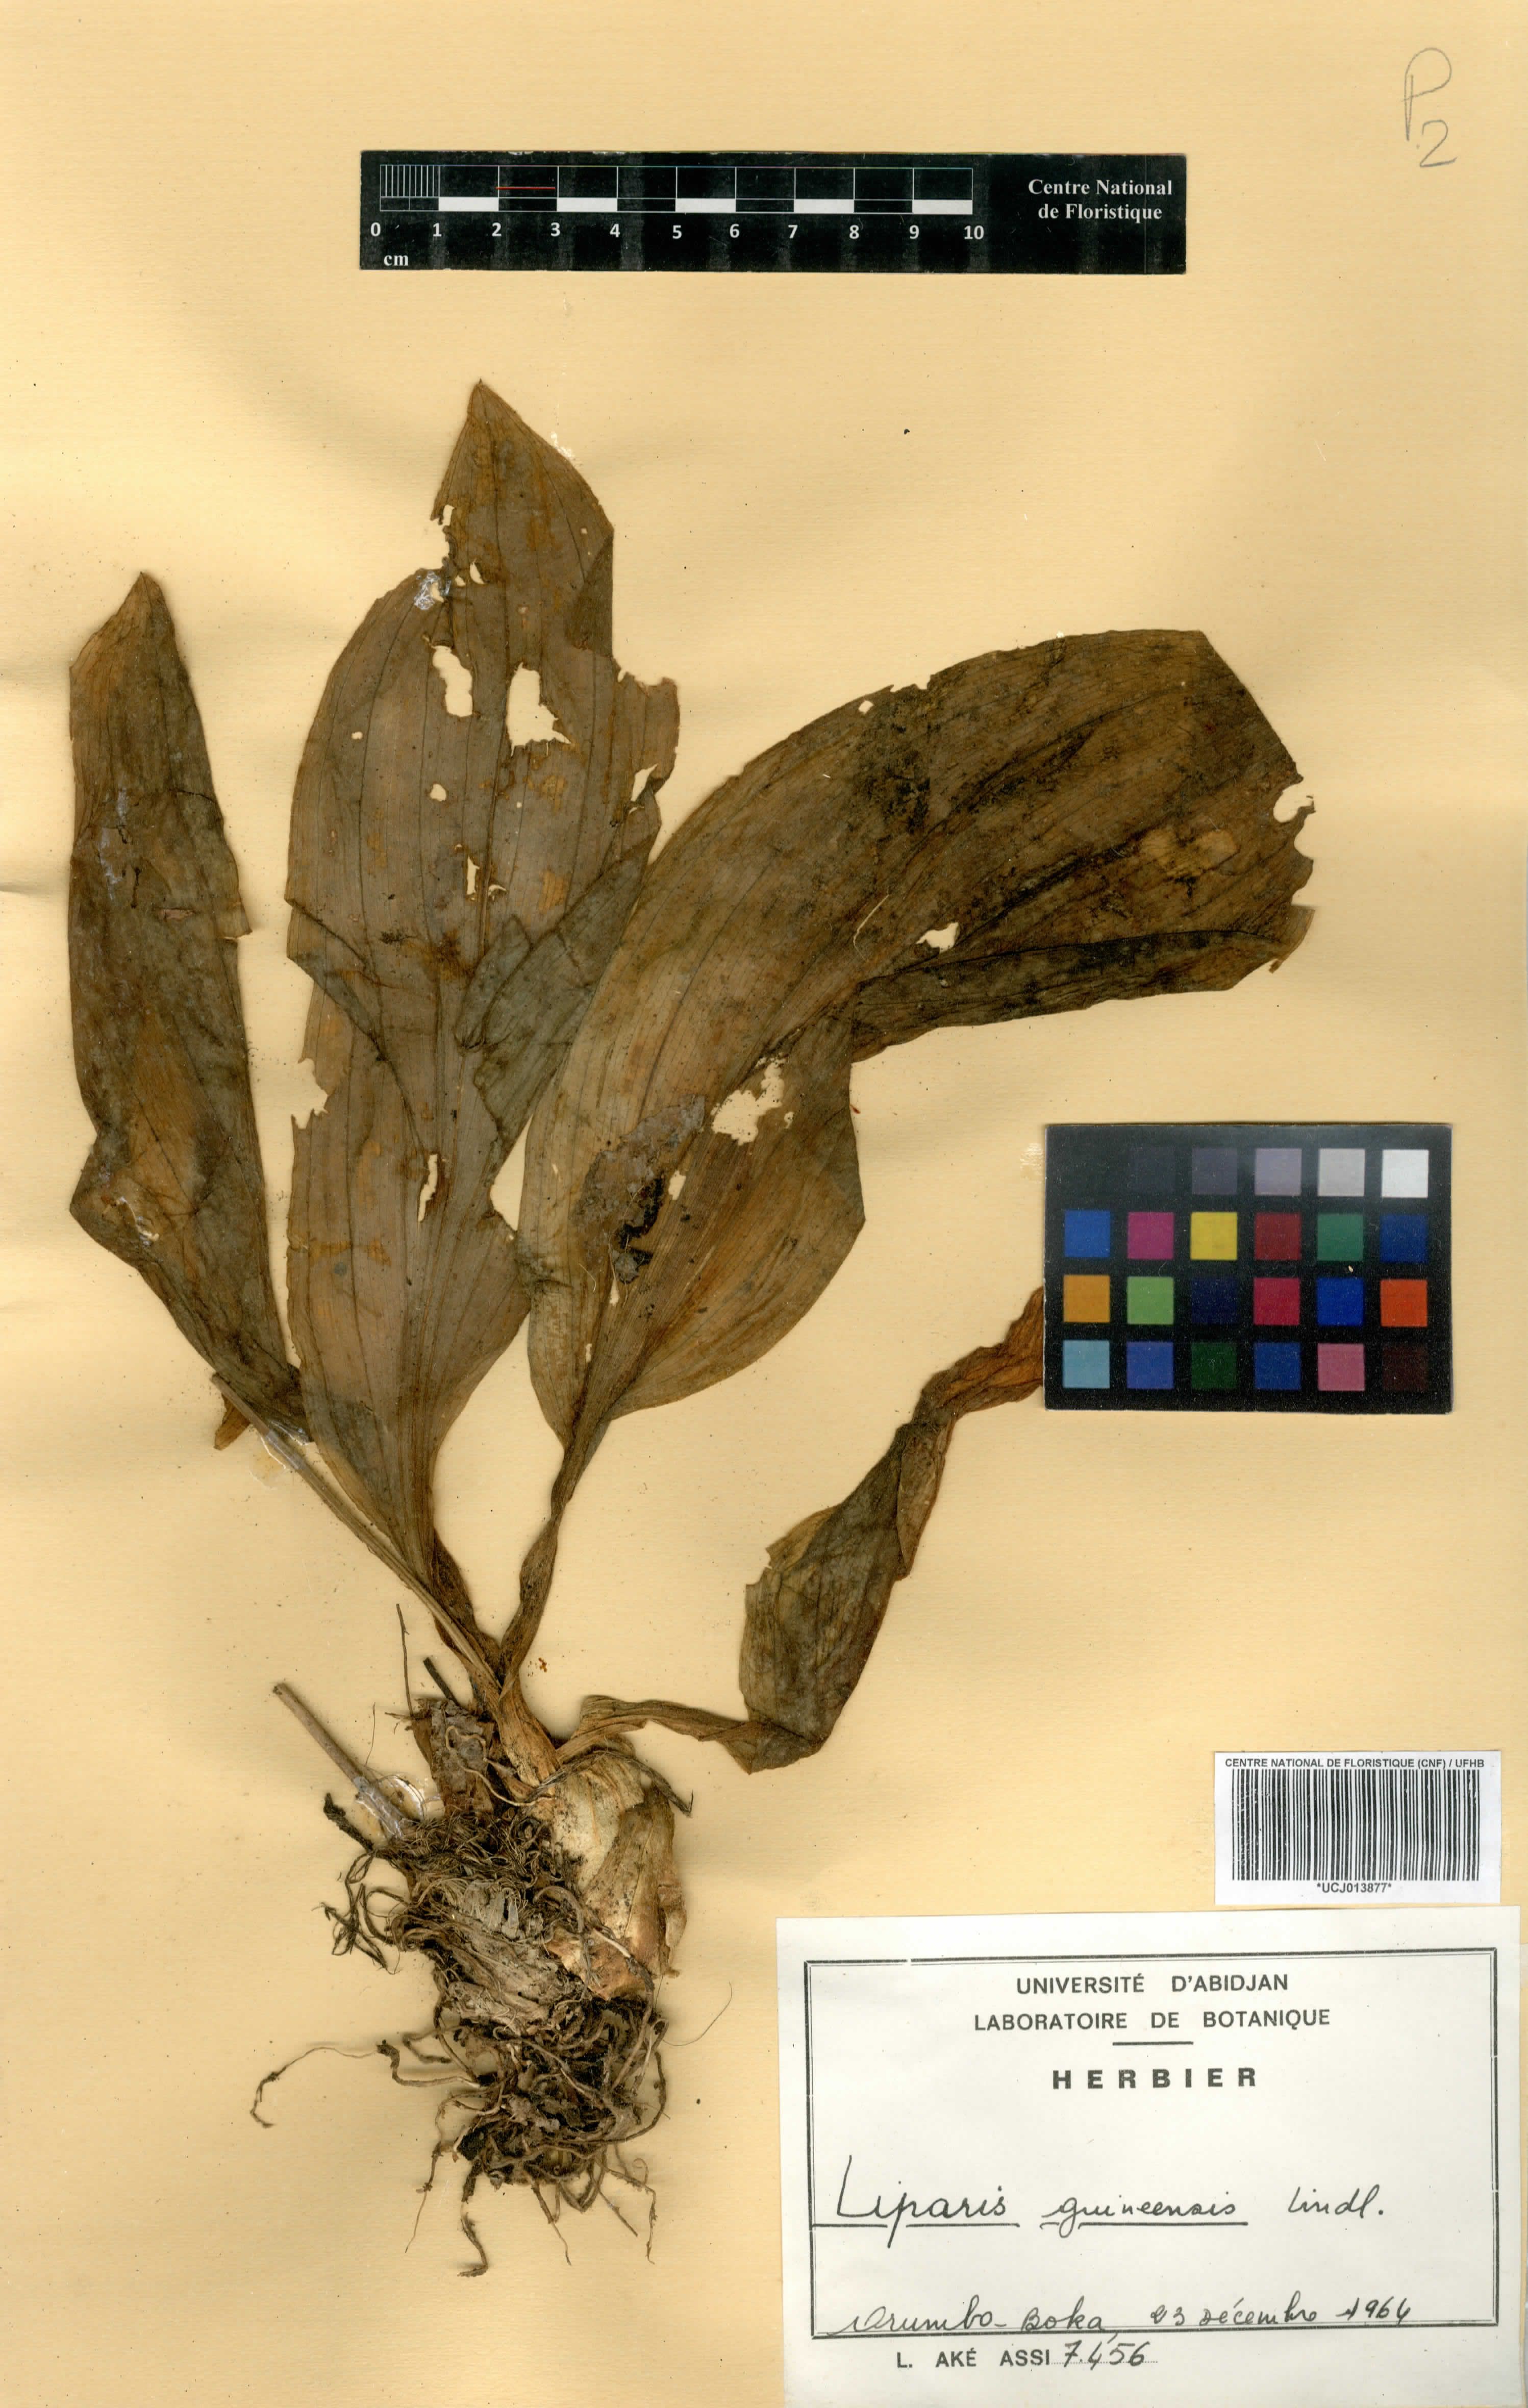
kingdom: Plantae
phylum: Tracheophyta
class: Liliopsida
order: Asparagales
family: Orchidaceae
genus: Liparis
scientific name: Liparis nervosa
